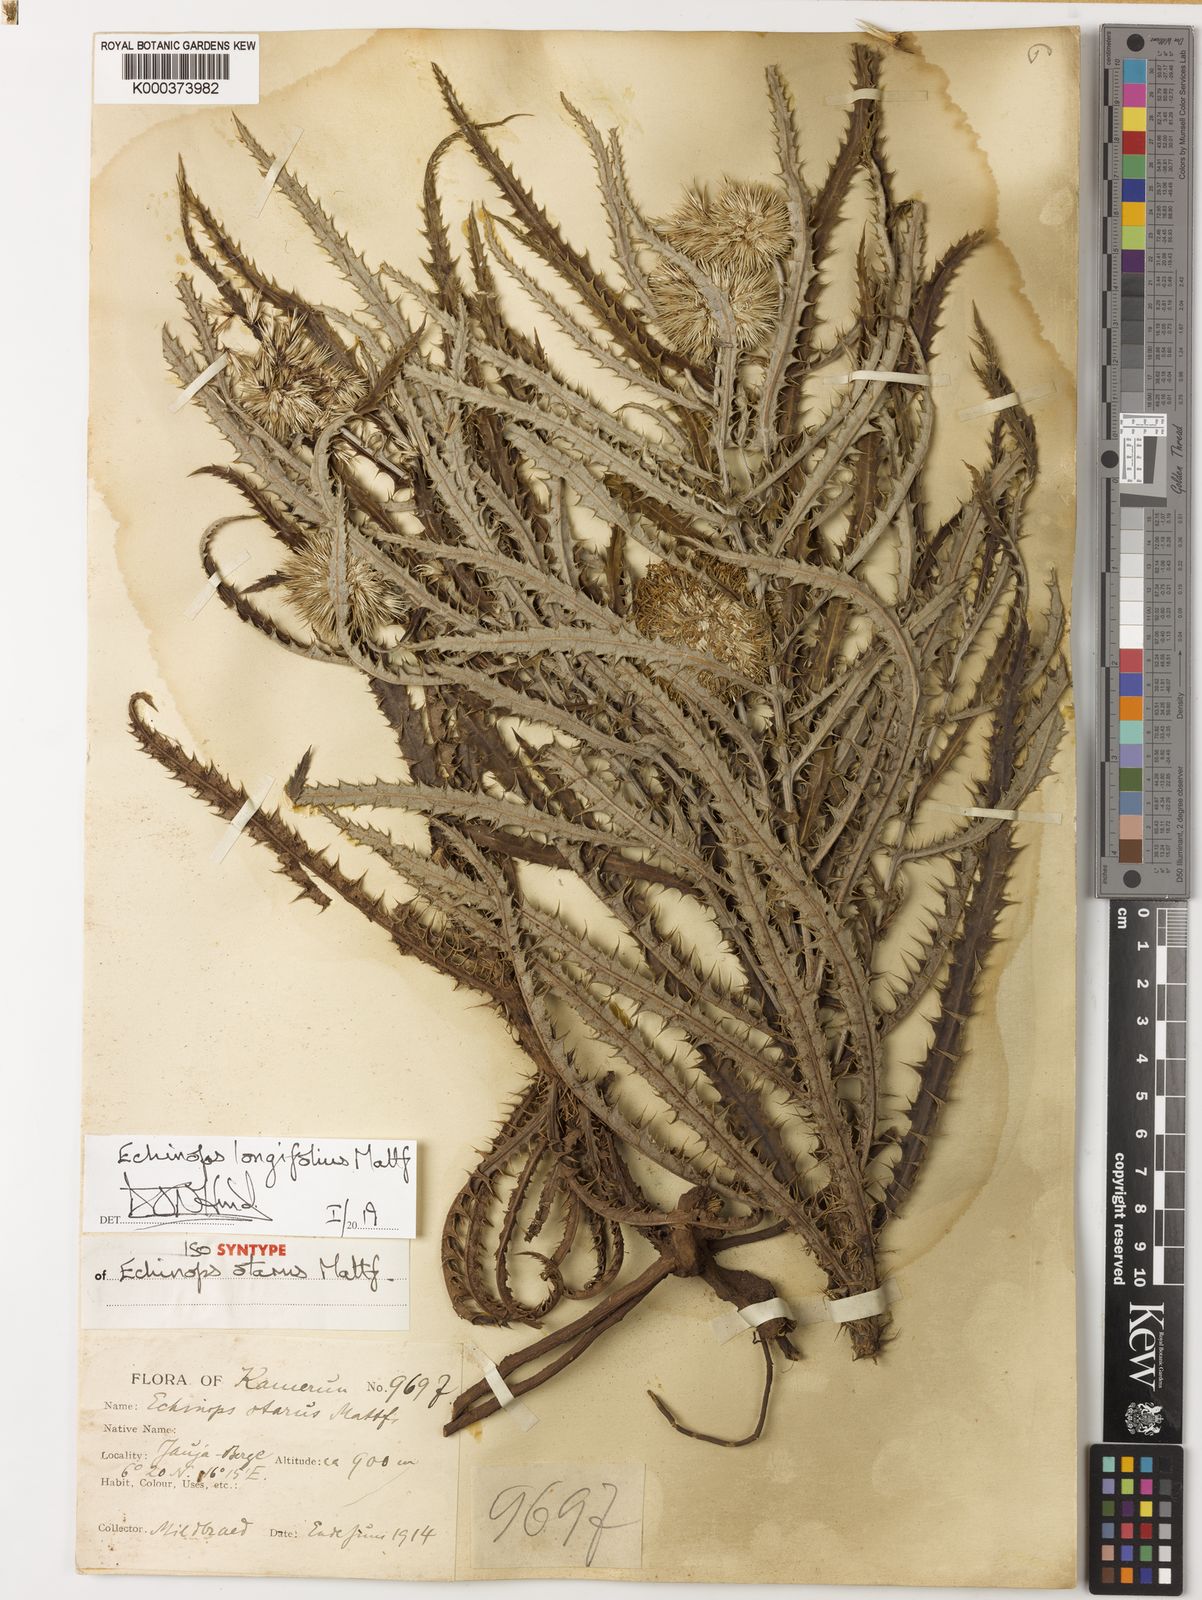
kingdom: Plantae
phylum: Tracheophyta
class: Magnoliopsida
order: Asterales
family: Asteraceae
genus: Echinops
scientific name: Echinops
